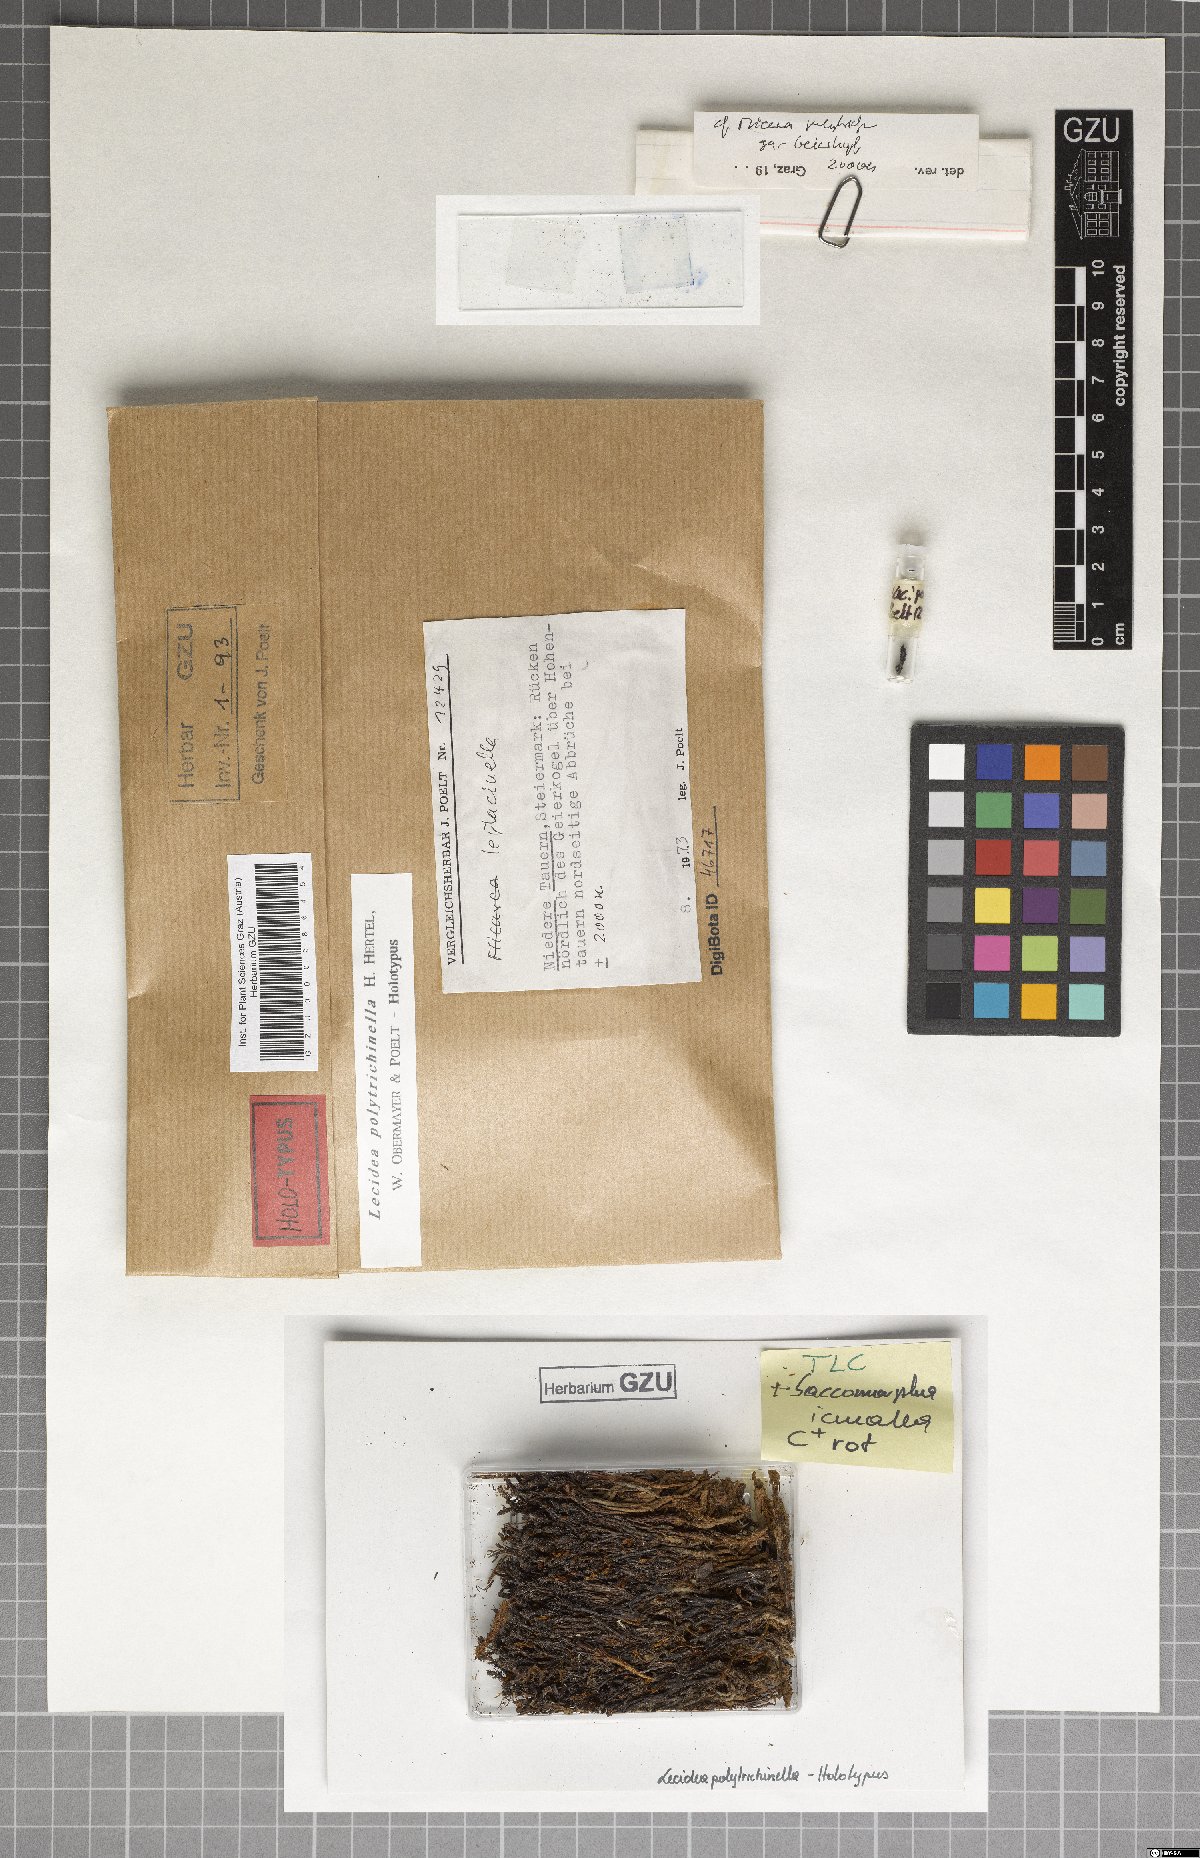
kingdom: Fungi
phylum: Ascomycota
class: Lecanoromycetes
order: Lecideales
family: Lecideaceae
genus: Lecidea
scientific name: Lecidea polytrichinella
